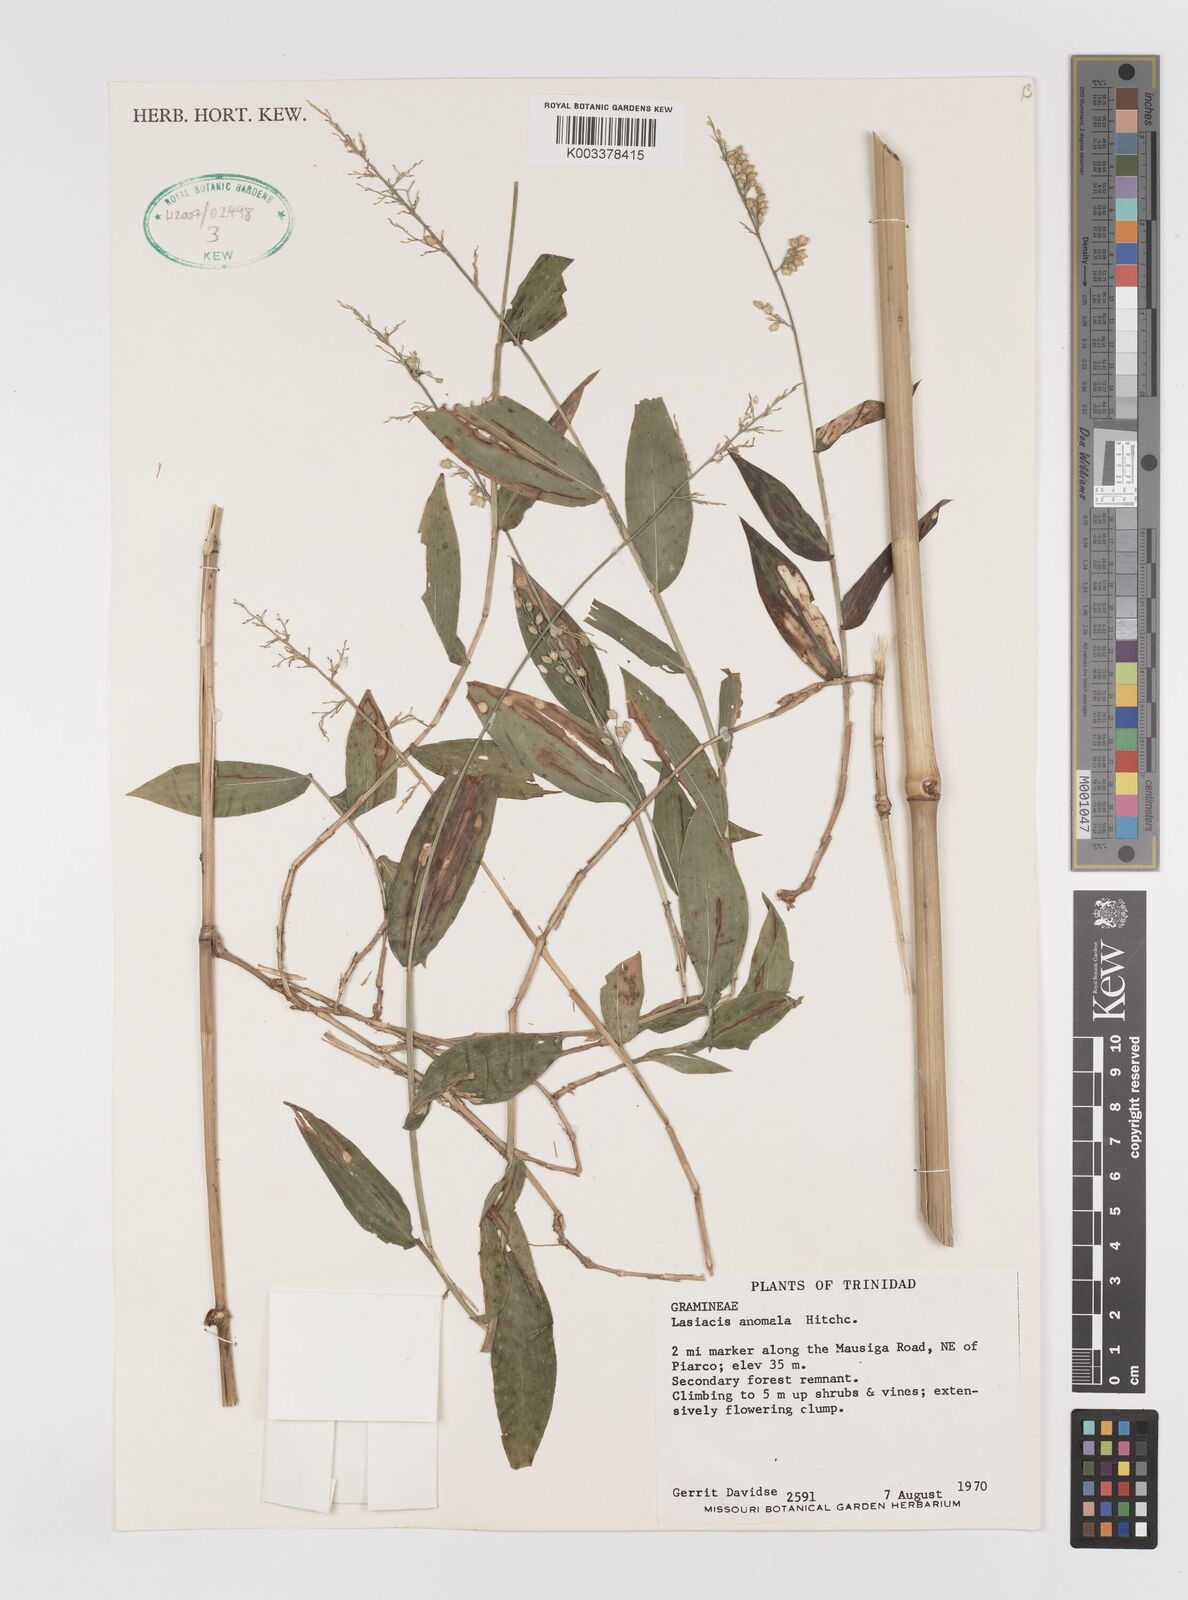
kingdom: Plantae
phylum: Tracheophyta
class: Liliopsida
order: Poales
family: Poaceae
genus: Lasiacis
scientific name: Lasiacis anomala
